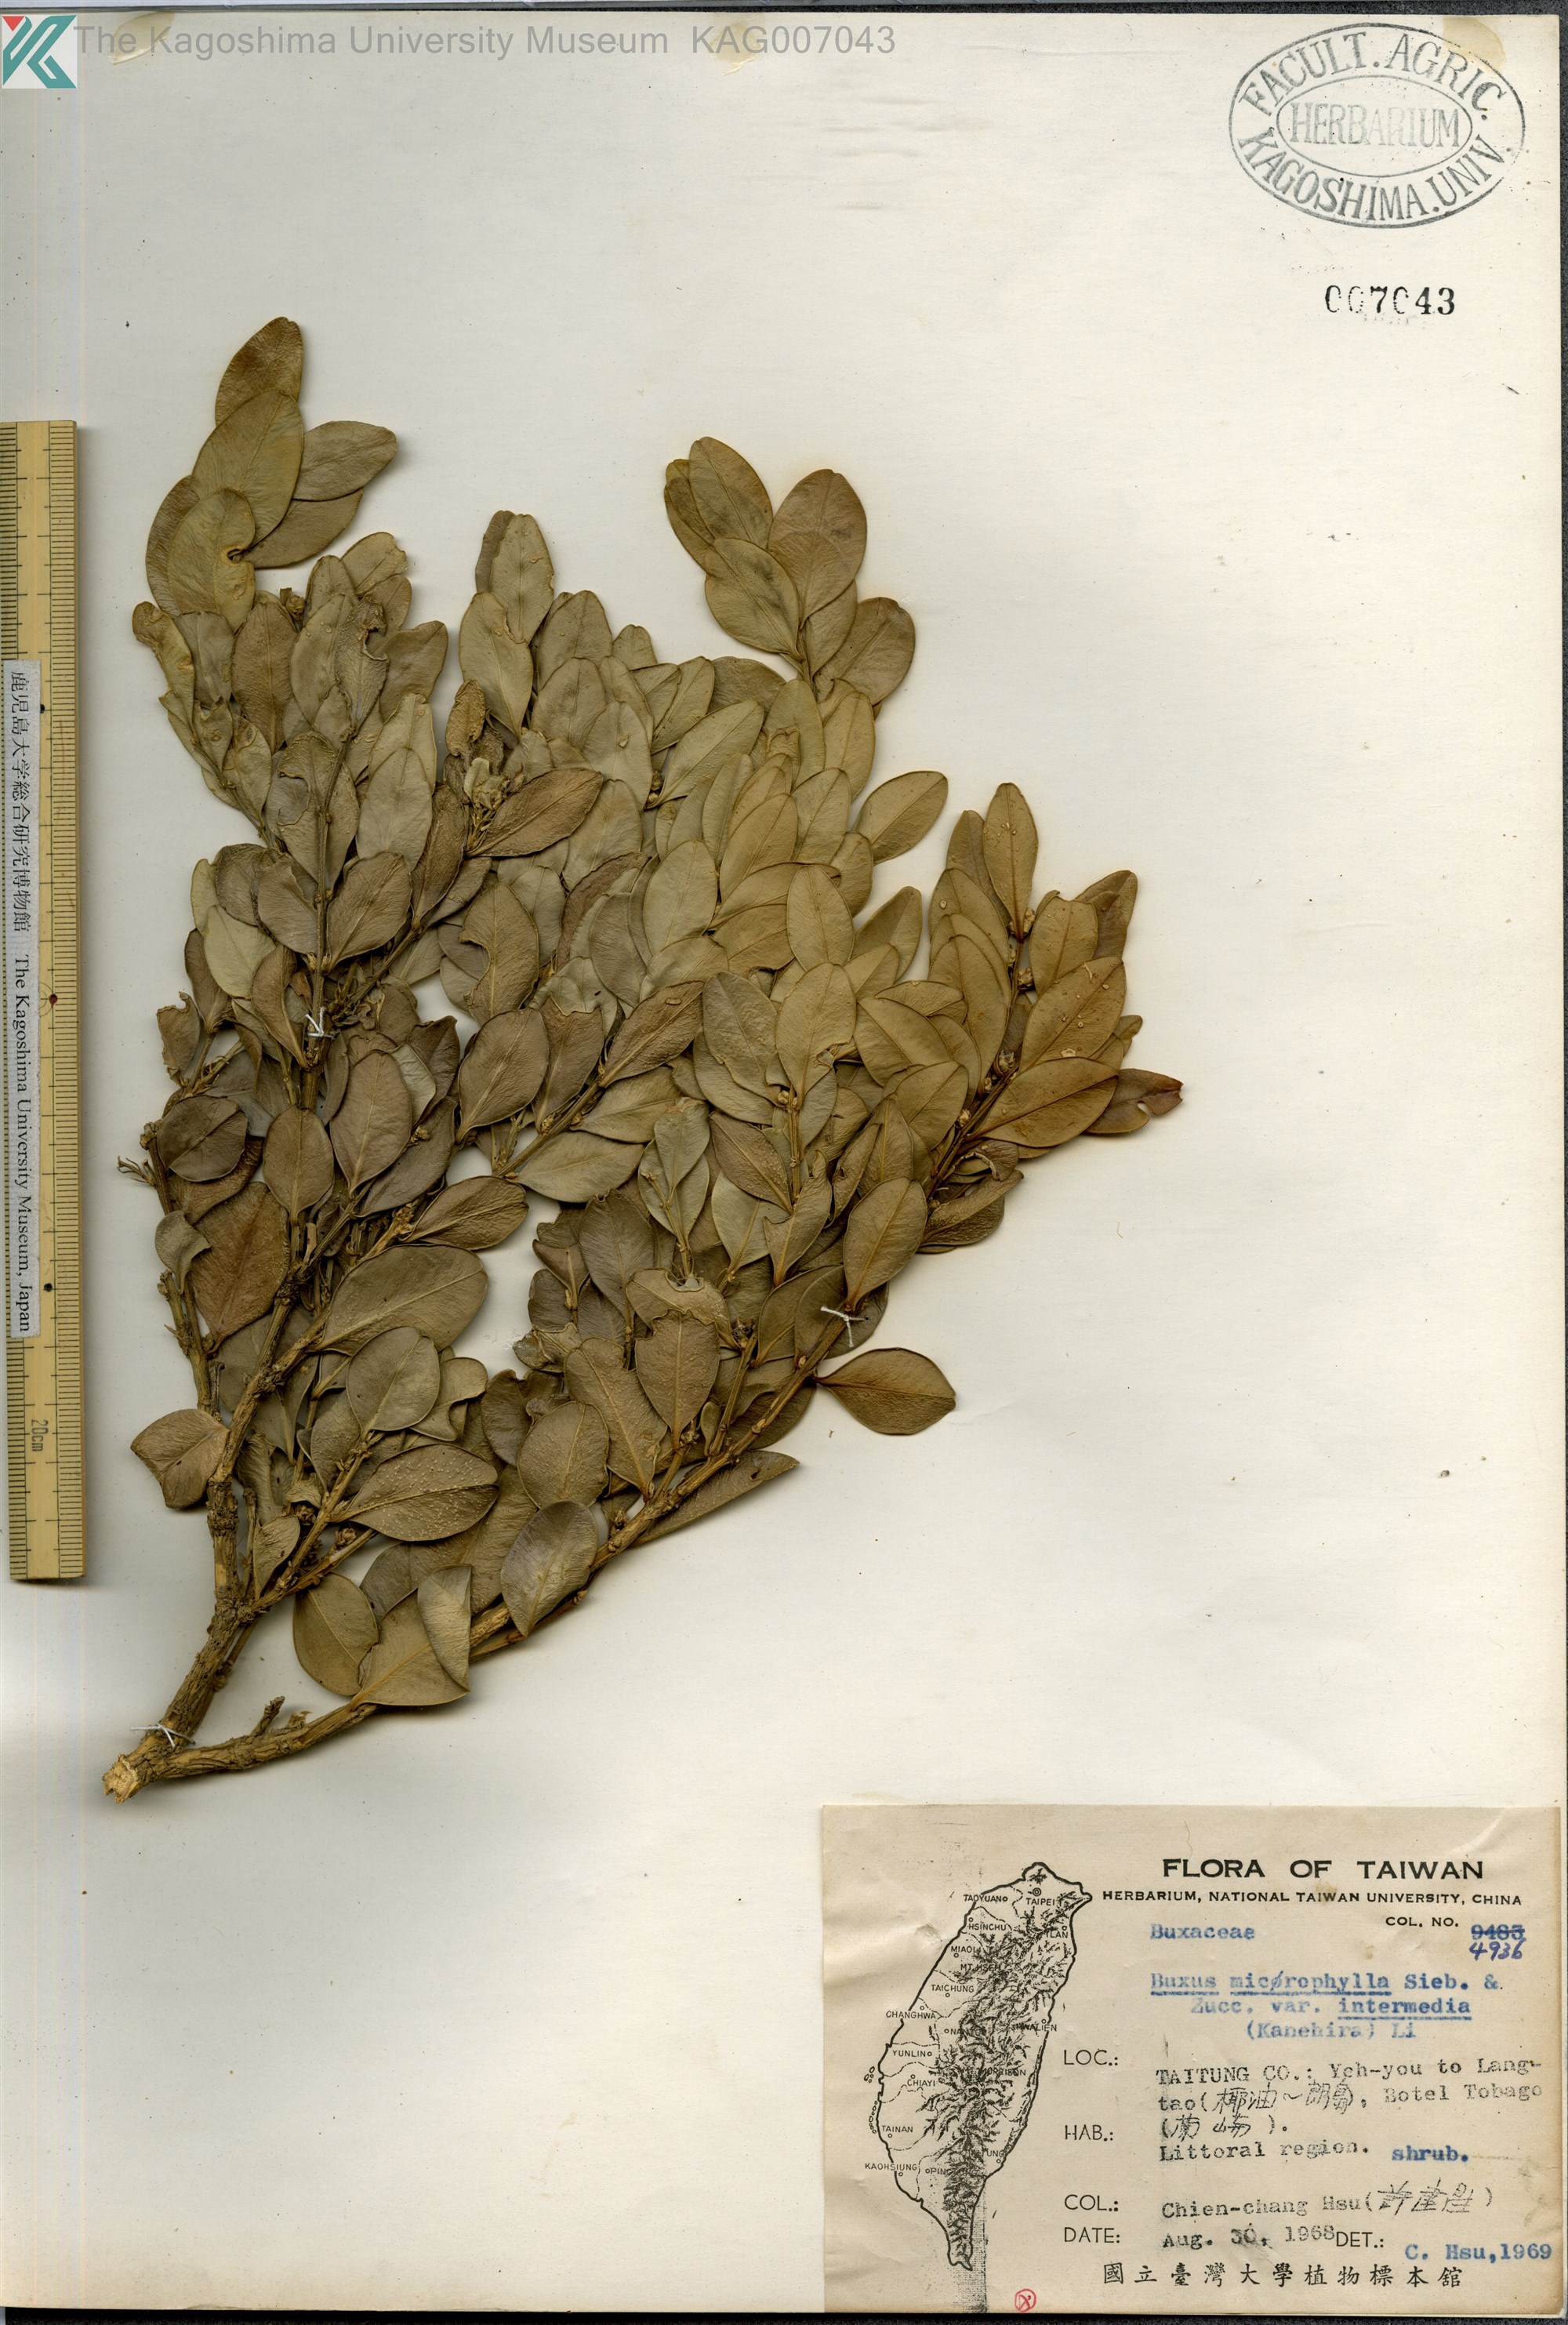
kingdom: Plantae
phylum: Tracheophyta
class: Magnoliopsida
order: Buxales
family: Buxaceae
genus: Buxus
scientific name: Buxus sinica
